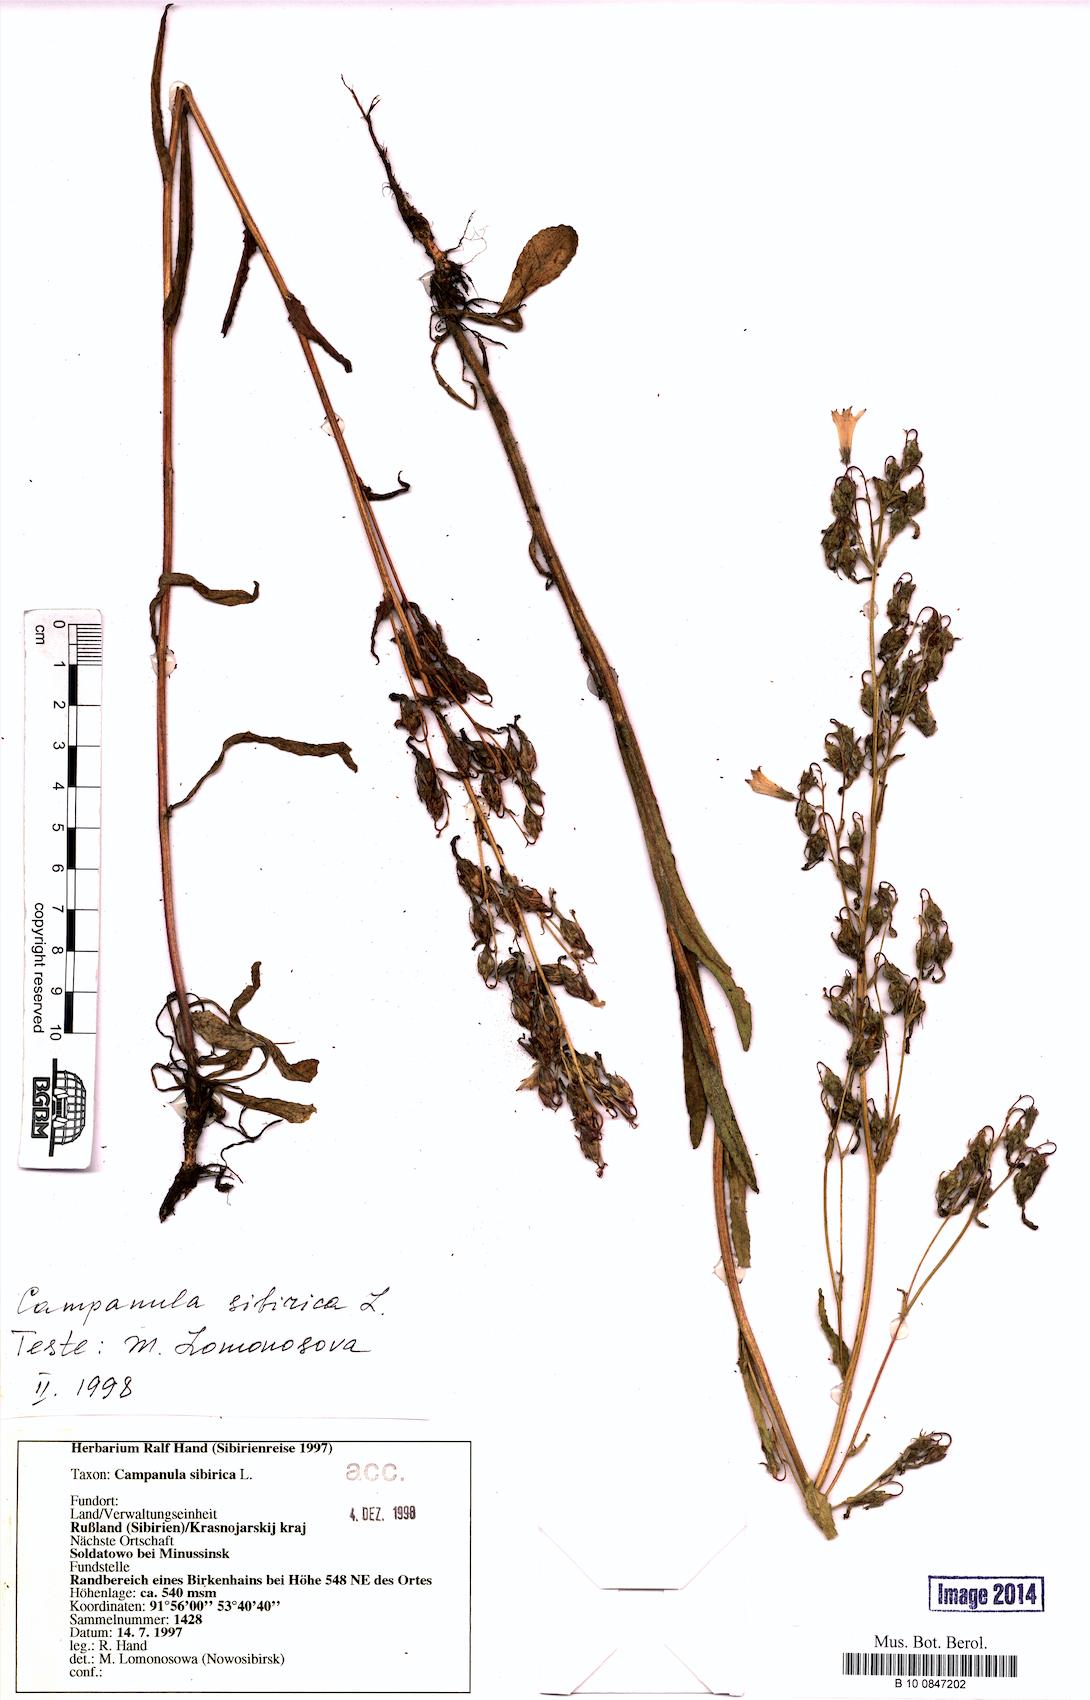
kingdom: Plantae
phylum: Tracheophyta
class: Magnoliopsida
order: Asterales
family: Campanulaceae
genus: Campanula
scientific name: Campanula sibirica
